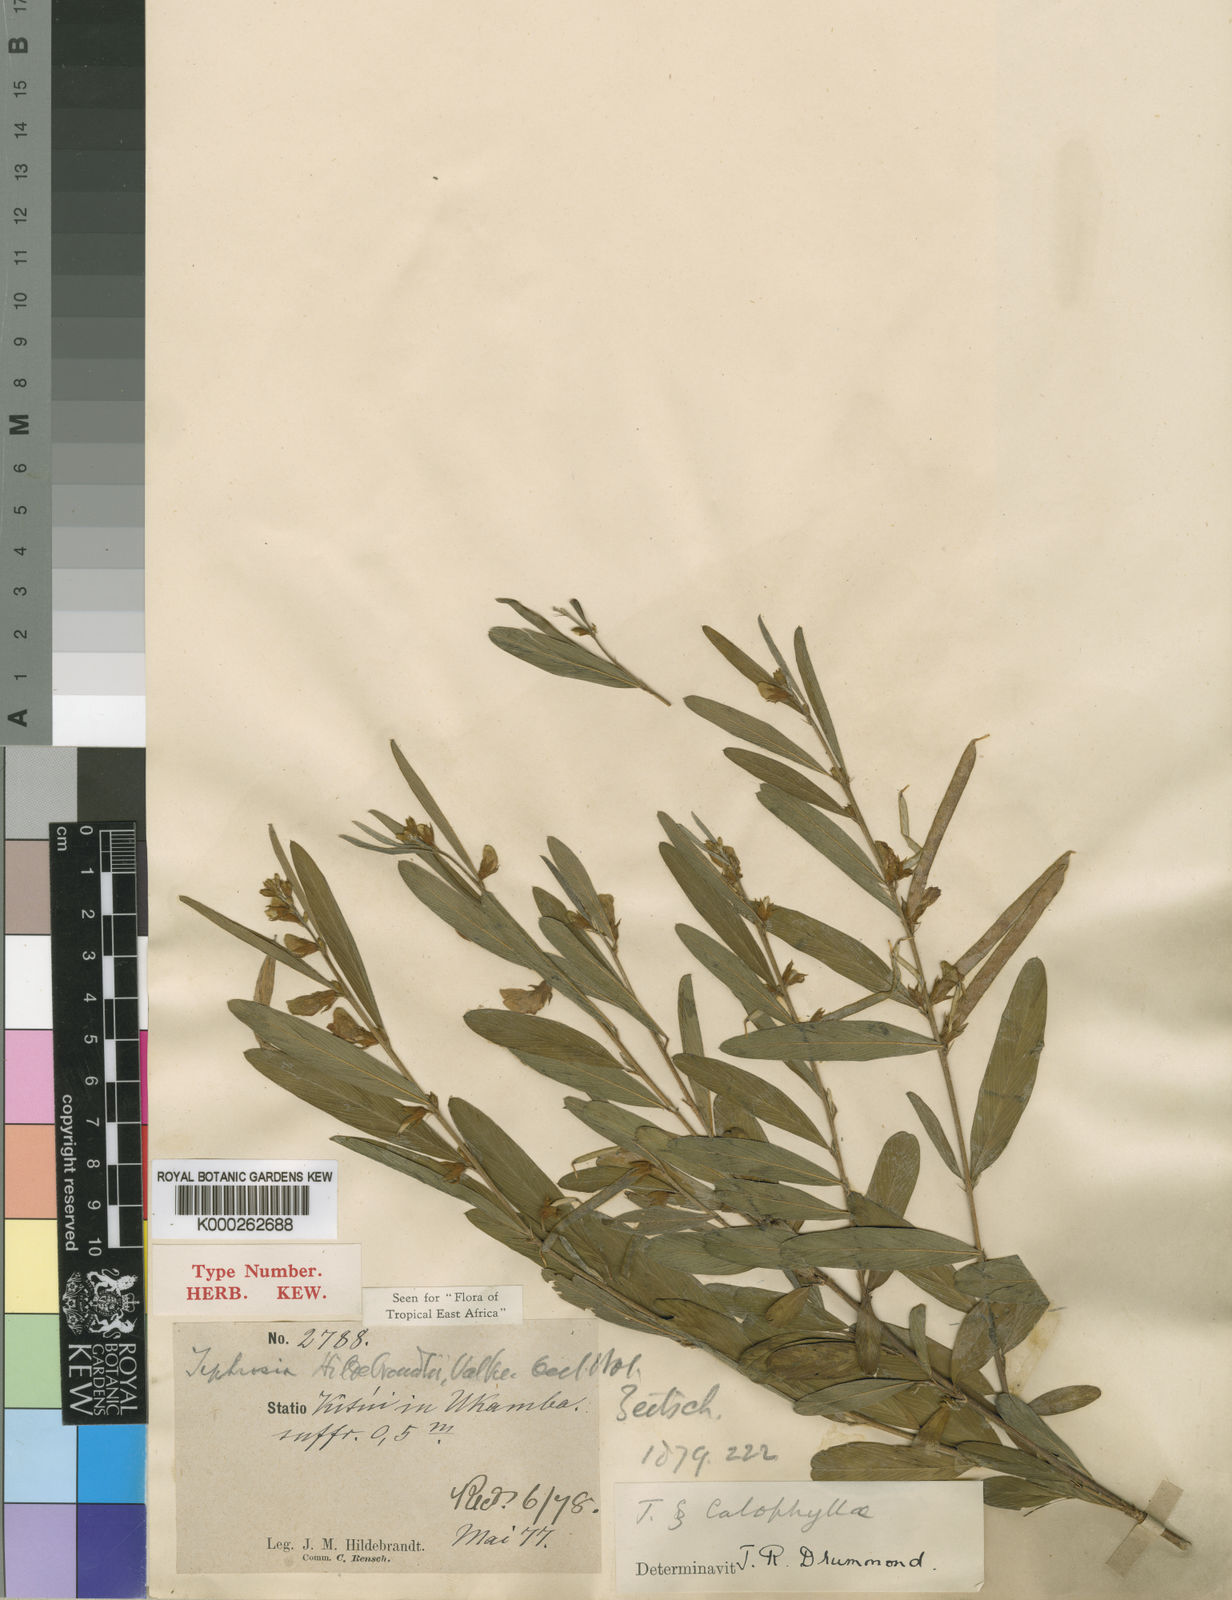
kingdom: Plantae
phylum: Tracheophyta
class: Magnoliopsida
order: Fabales
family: Fabaceae
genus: Tephrosia
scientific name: Tephrosia hildebrandtii
